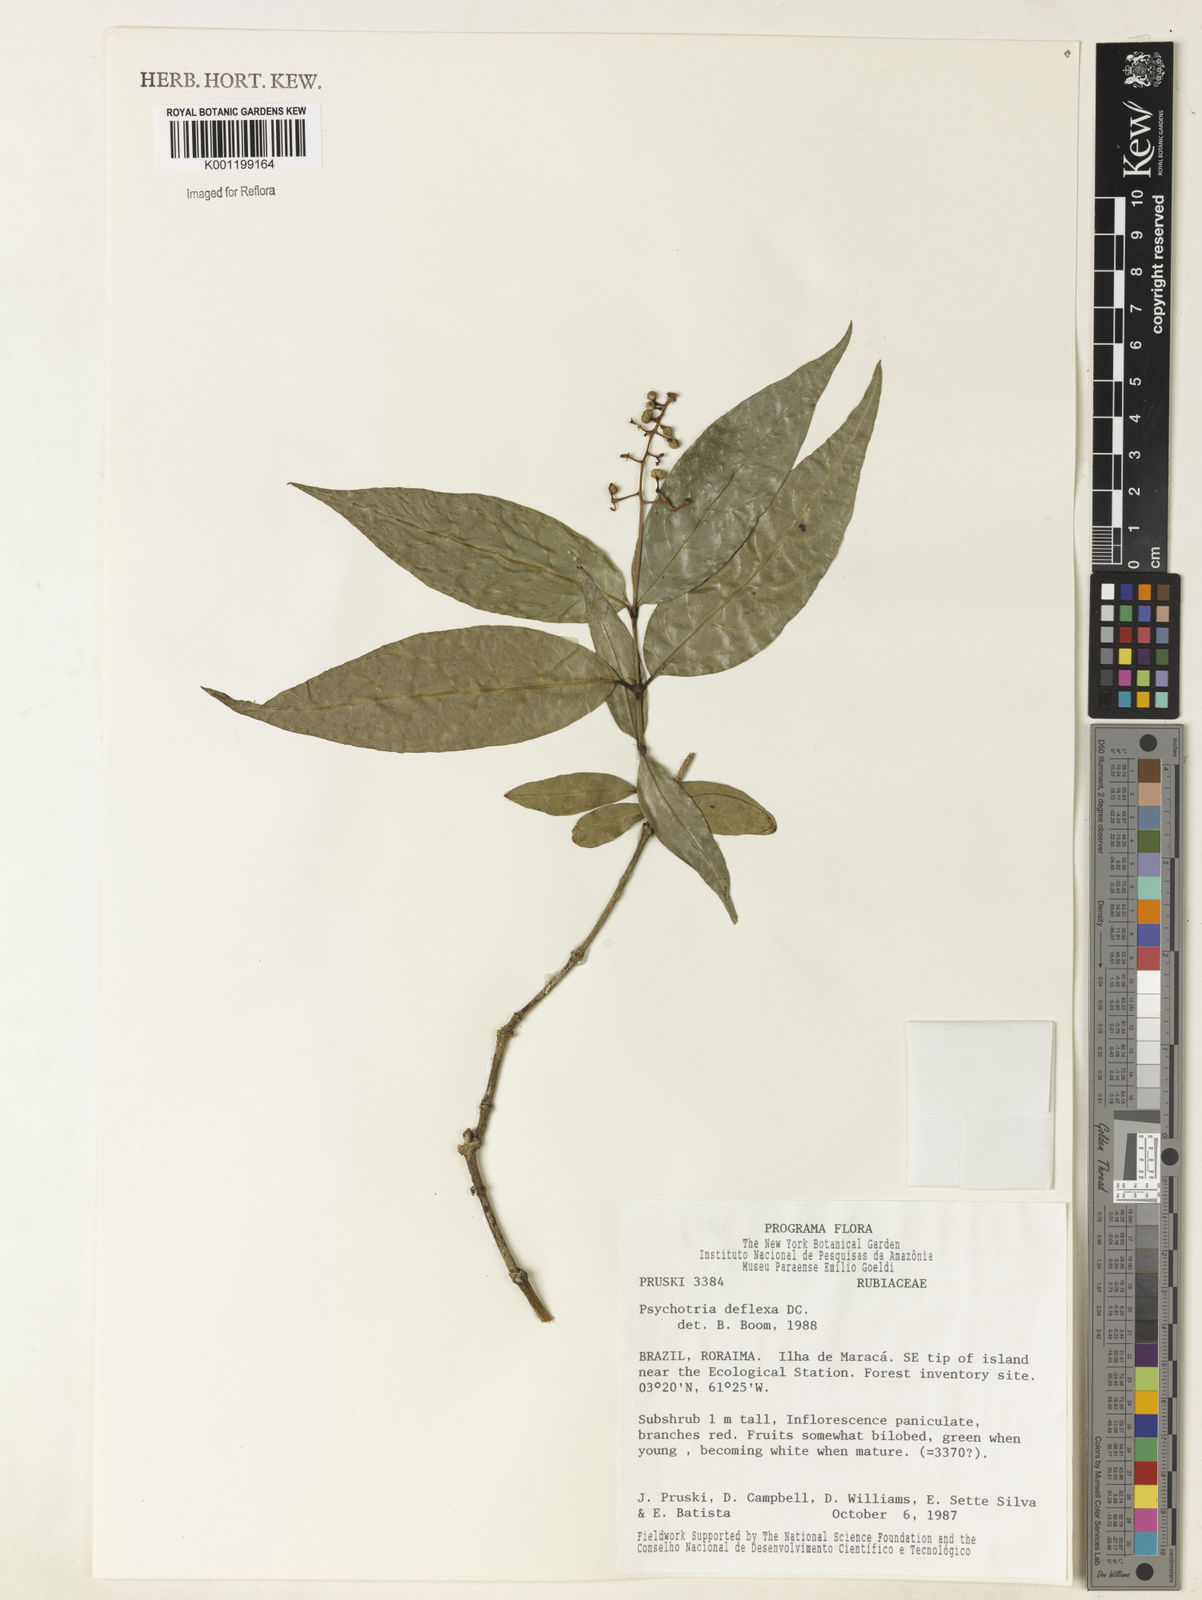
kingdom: Plantae
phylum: Tracheophyta
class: Magnoliopsida
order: Gentianales
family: Rubiaceae
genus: Palicourea
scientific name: Palicourea deflexa
